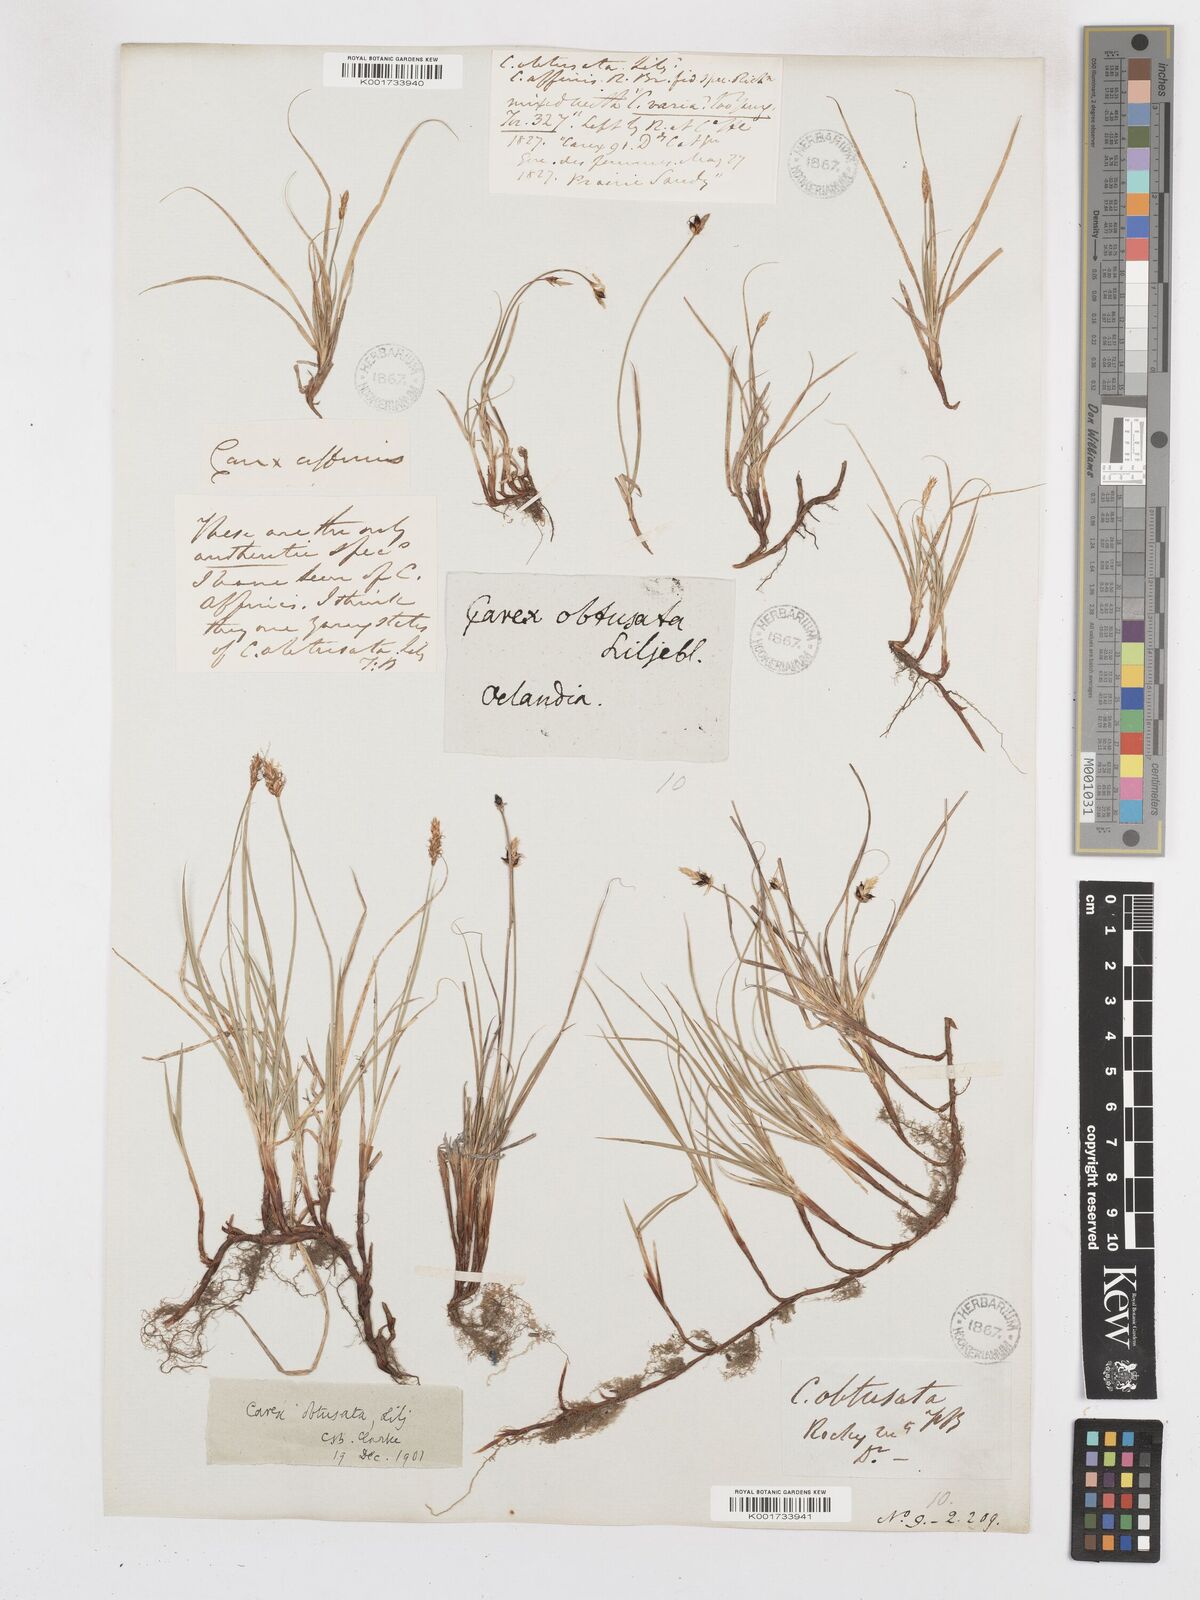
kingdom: Plantae
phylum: Tracheophyta
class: Liliopsida
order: Poales
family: Cyperaceae
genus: Carex
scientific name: Carex obtusata
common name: Blunt sedge
